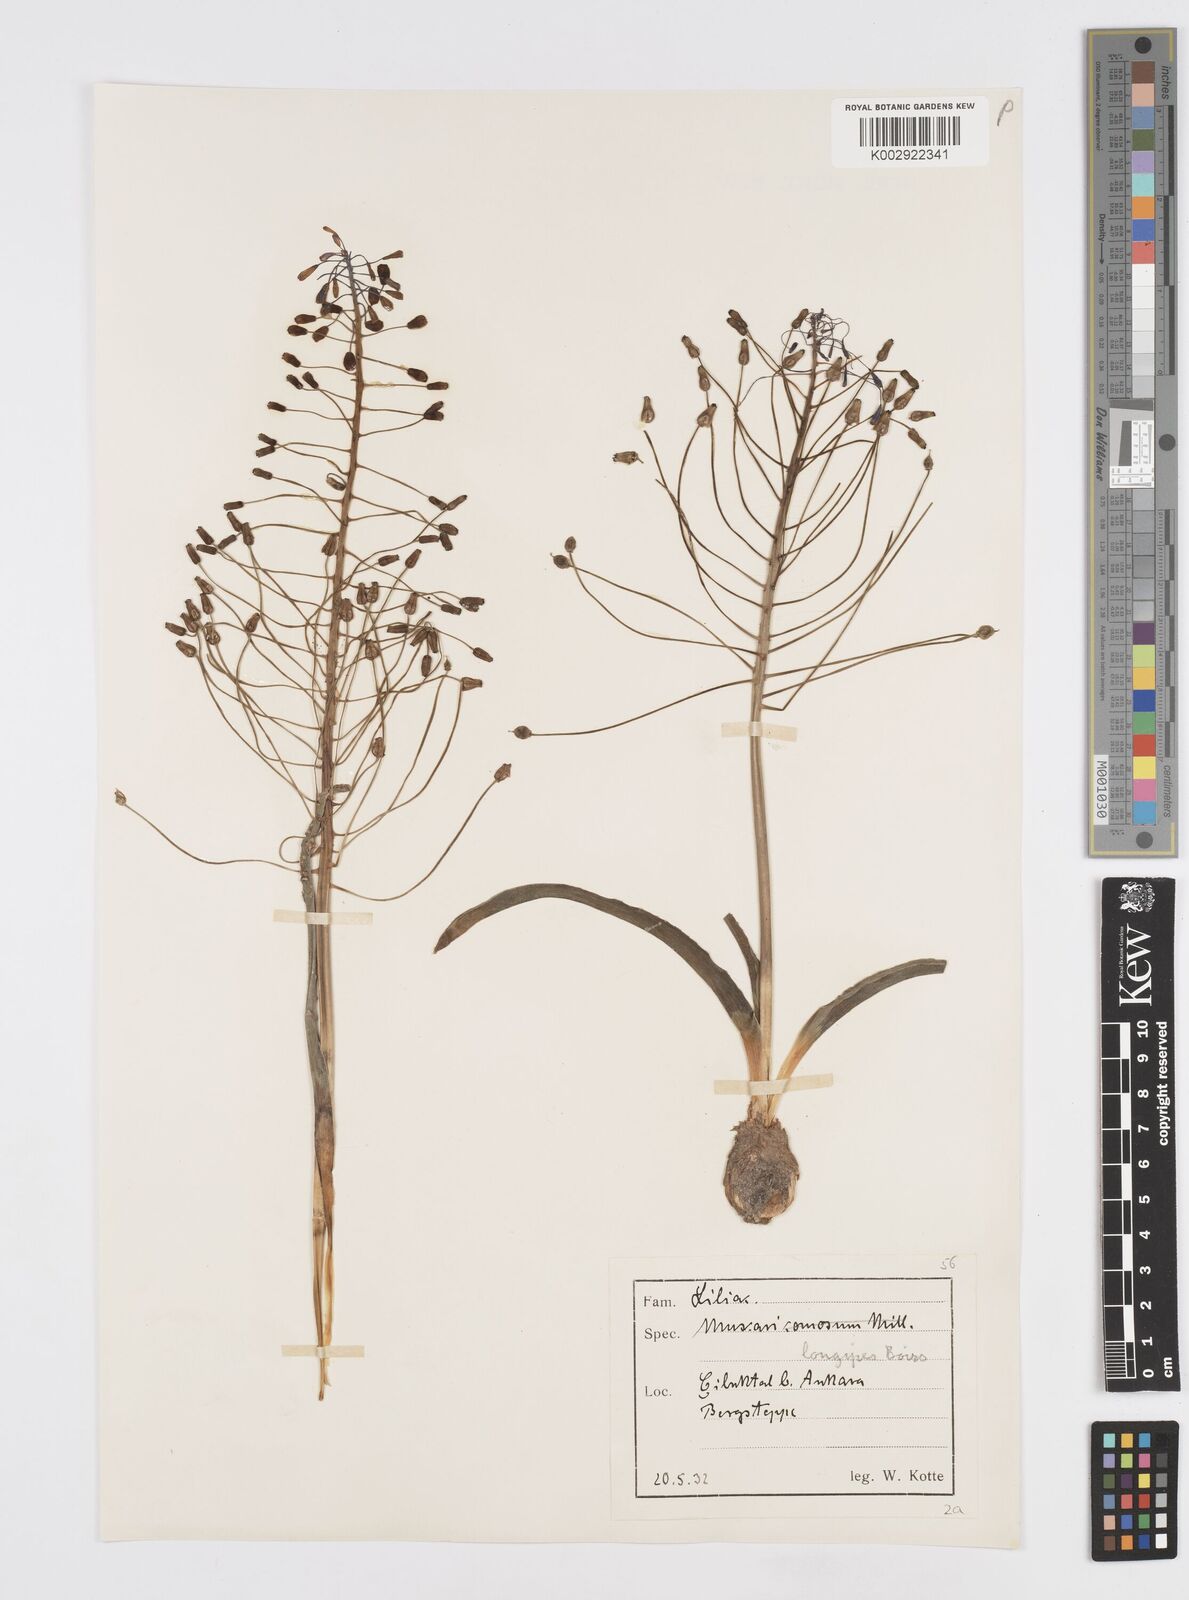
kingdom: Plantae
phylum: Tracheophyta
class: Liliopsida
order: Asparagales
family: Asparagaceae
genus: Muscari
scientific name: Muscari longipes
